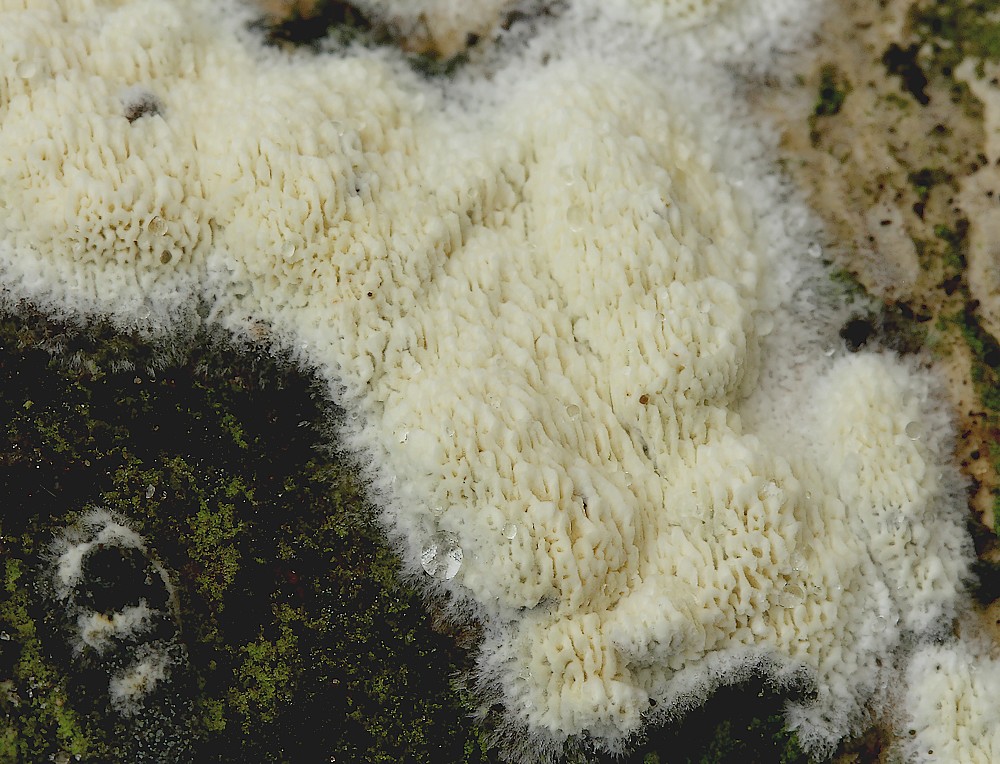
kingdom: Fungi
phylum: Basidiomycota
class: Agaricomycetes
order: Polyporales
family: Fomitopsidaceae
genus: Daedalea
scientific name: Daedalea xantha
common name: gul sejporesvamp
